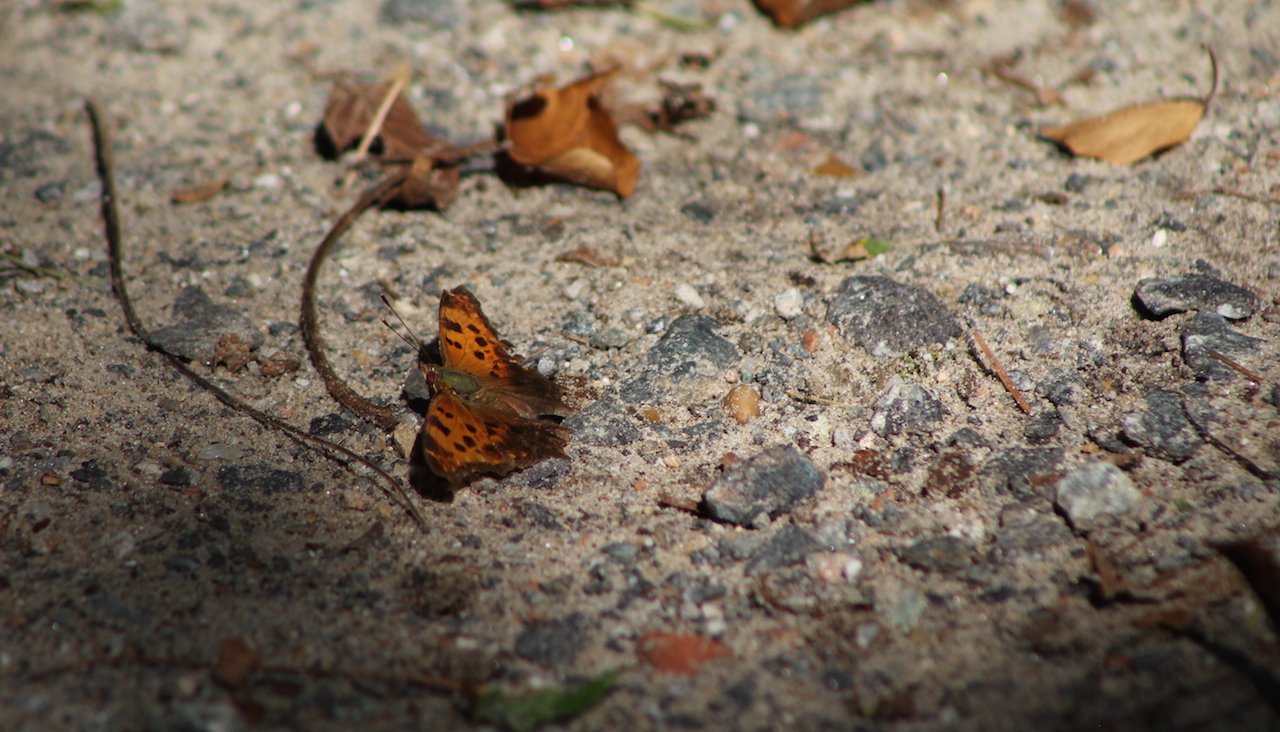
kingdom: Animalia
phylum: Arthropoda
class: Insecta
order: Lepidoptera
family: Nymphalidae
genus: Polygonia
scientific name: Polygonia comma
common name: Eastern Comma
